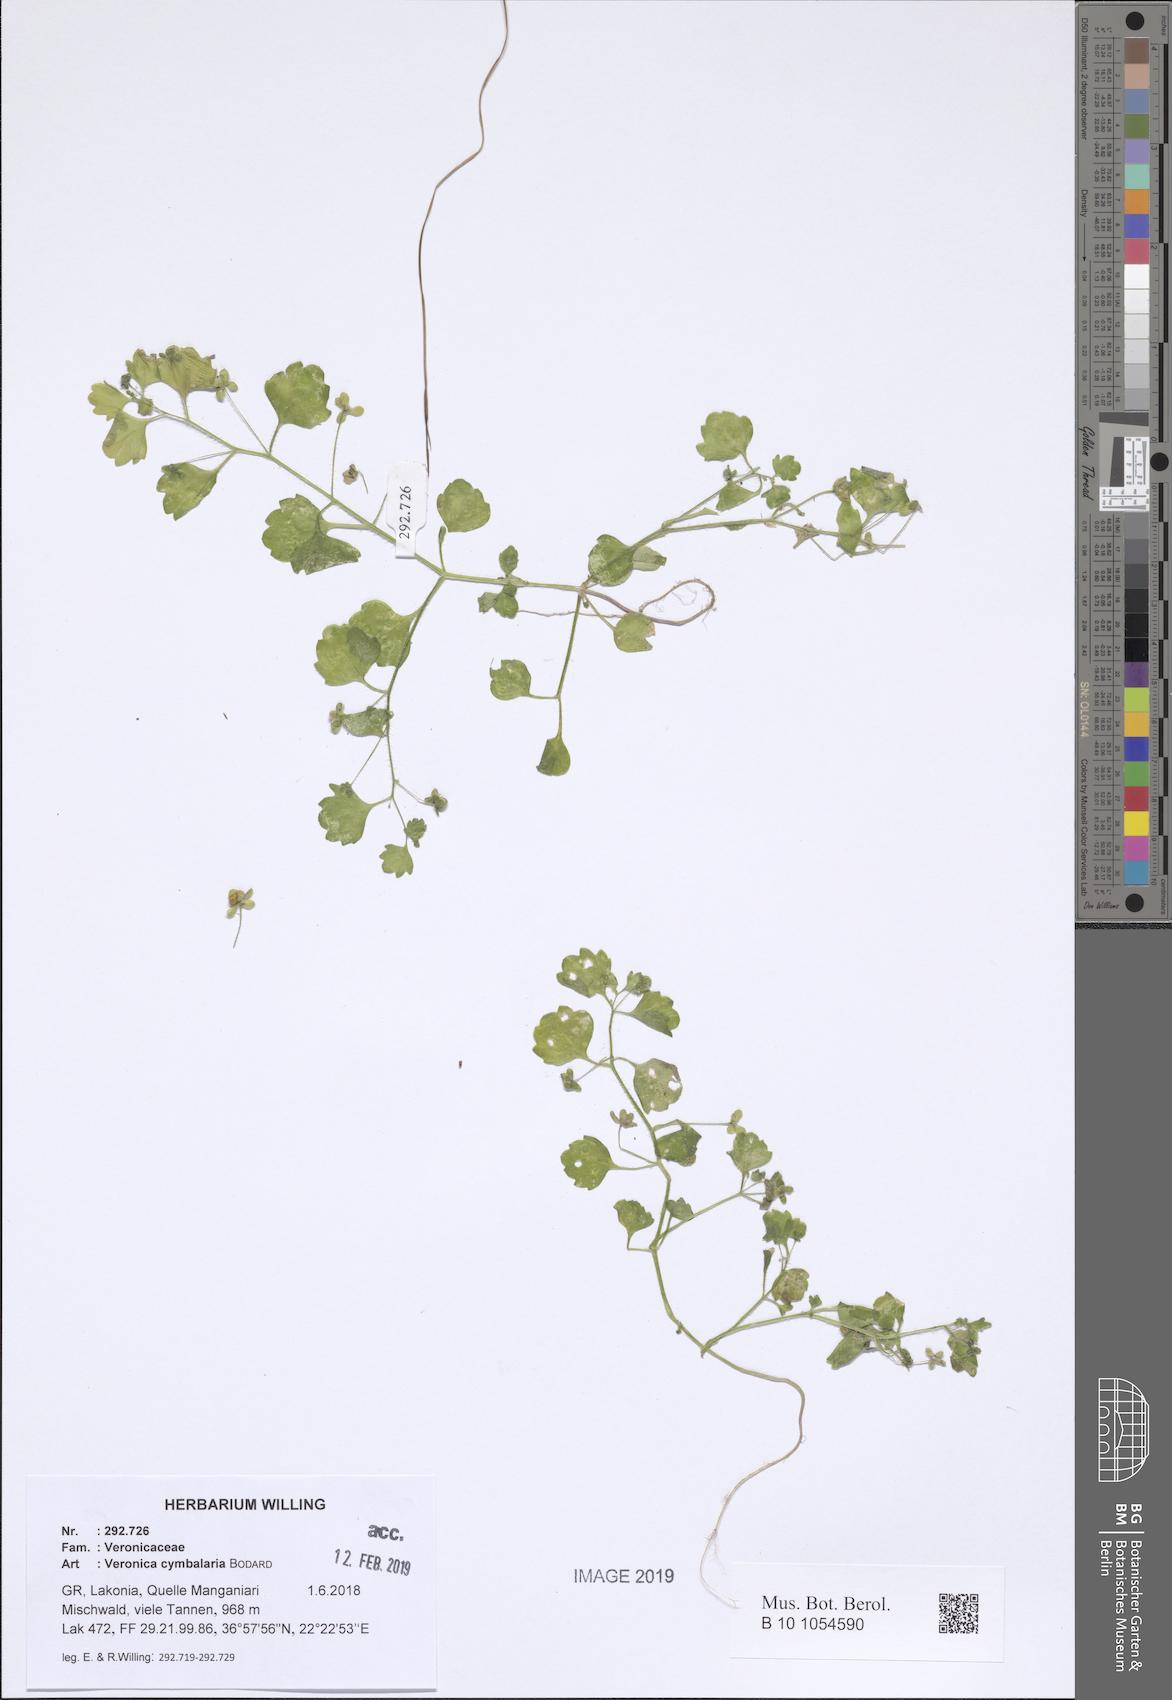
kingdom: Plantae
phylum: Tracheophyta
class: Magnoliopsida
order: Lamiales
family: Plantaginaceae
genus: Veronica
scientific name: Veronica cymbalaria
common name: Pale speedwell
